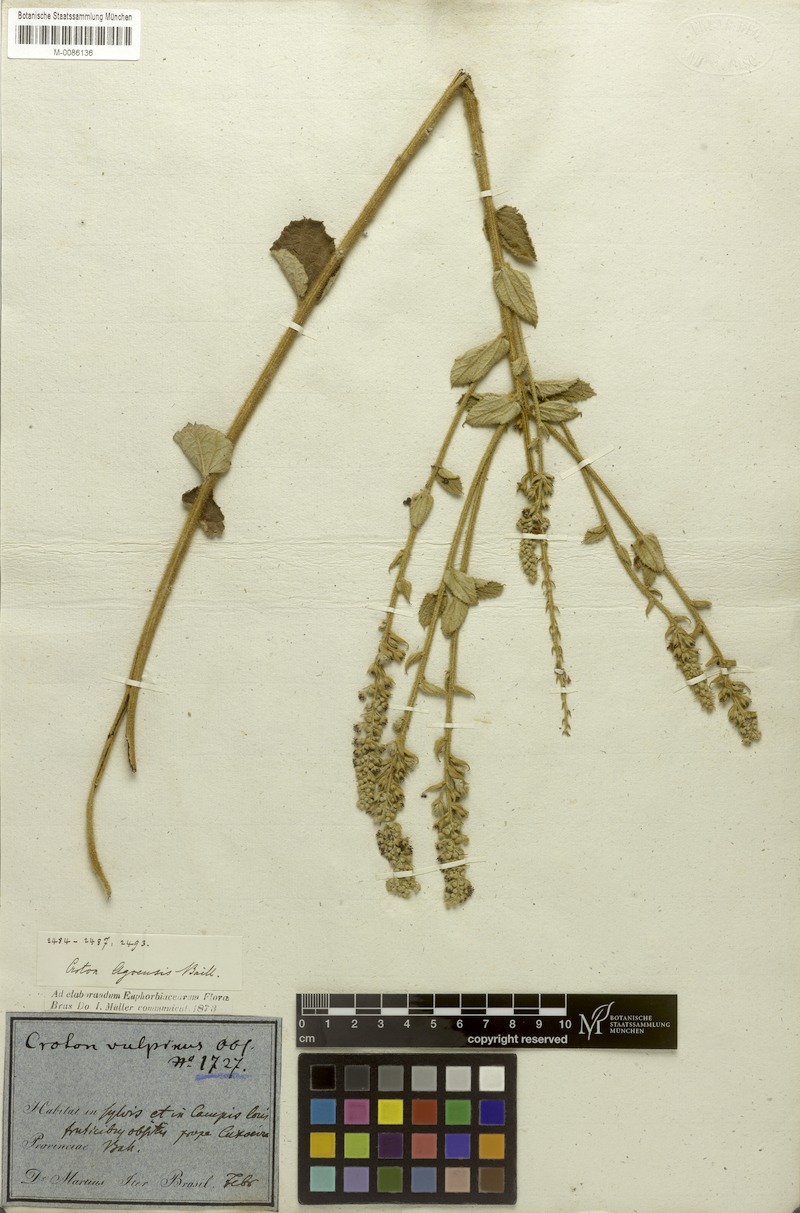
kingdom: Plantae
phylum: Tracheophyta
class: Magnoliopsida
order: Malpighiales
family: Euphorbiaceae
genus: Croton
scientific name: Croton agoensis
